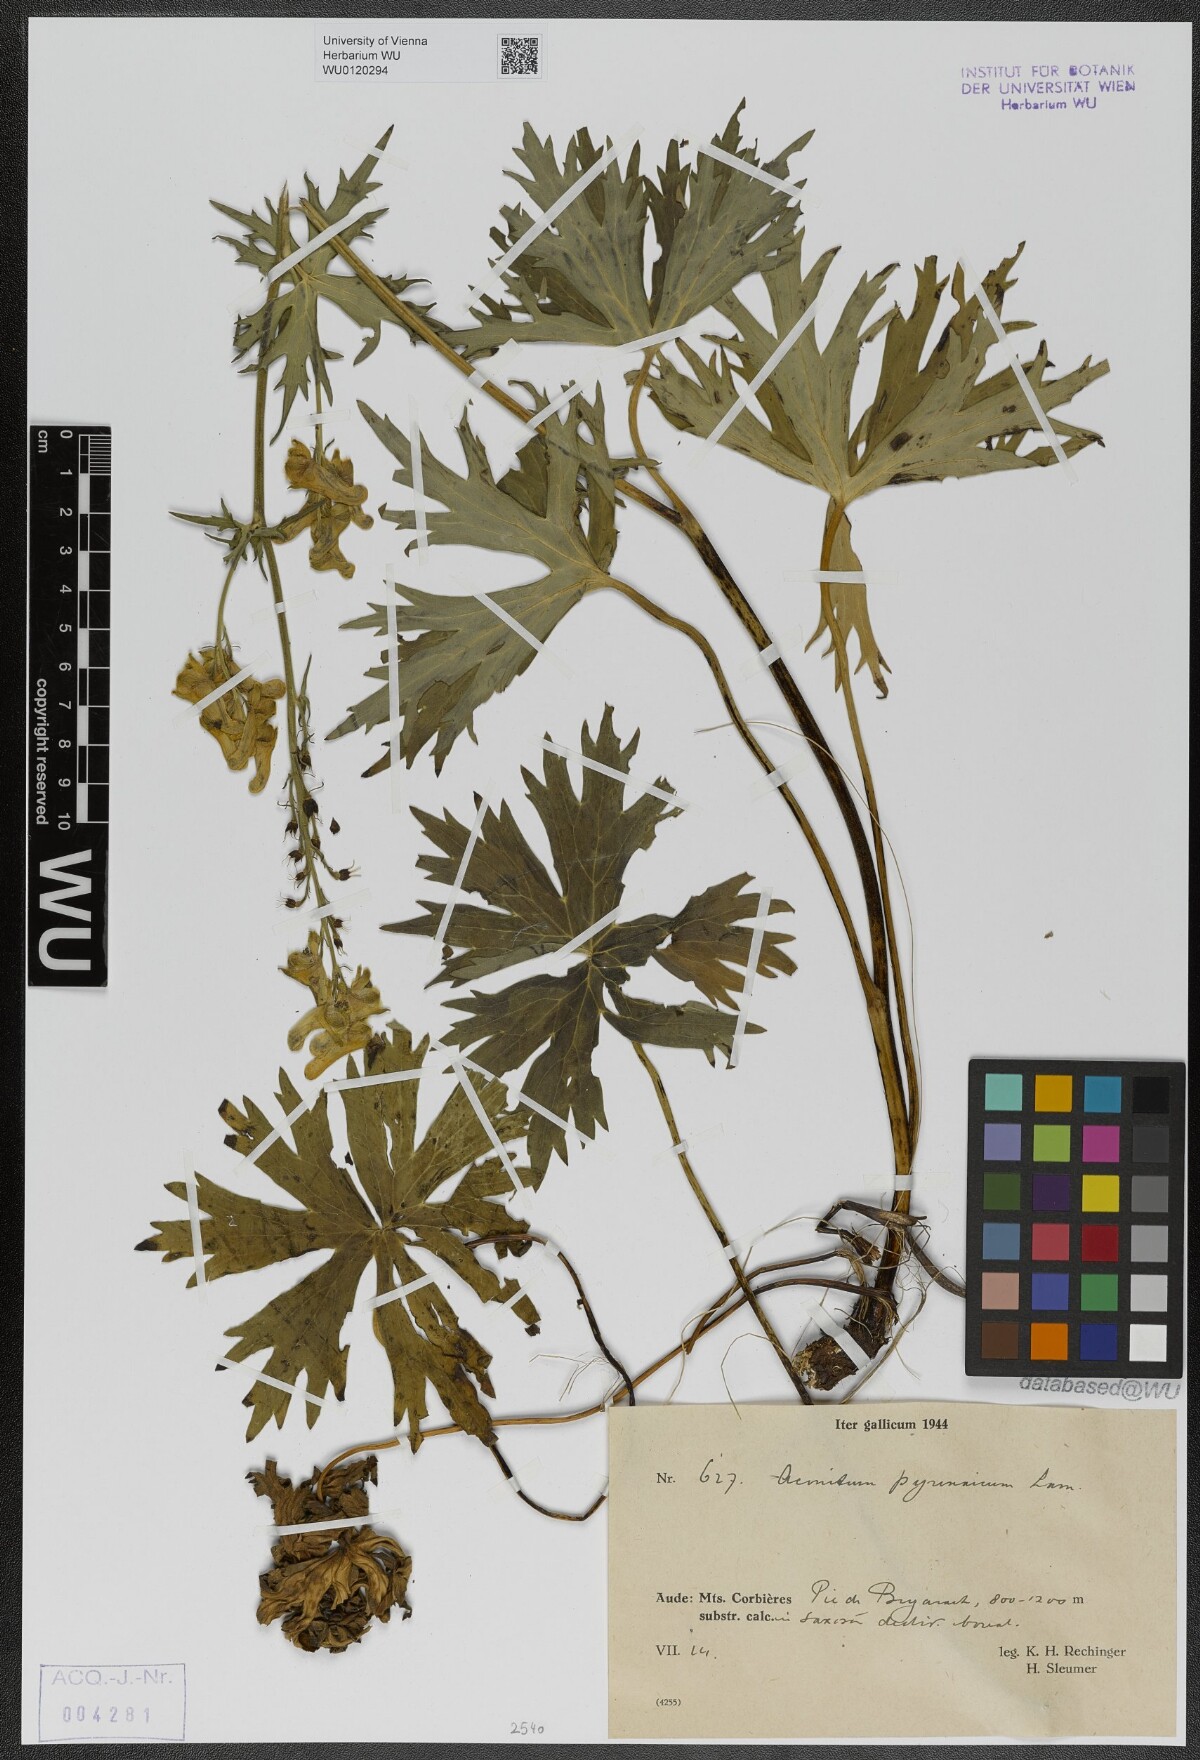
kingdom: Plantae
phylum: Tracheophyta
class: Magnoliopsida
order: Ranunculales
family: Ranunculaceae
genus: Aconitum
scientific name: Aconitum lycoctonum
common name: Wolf's-bane
